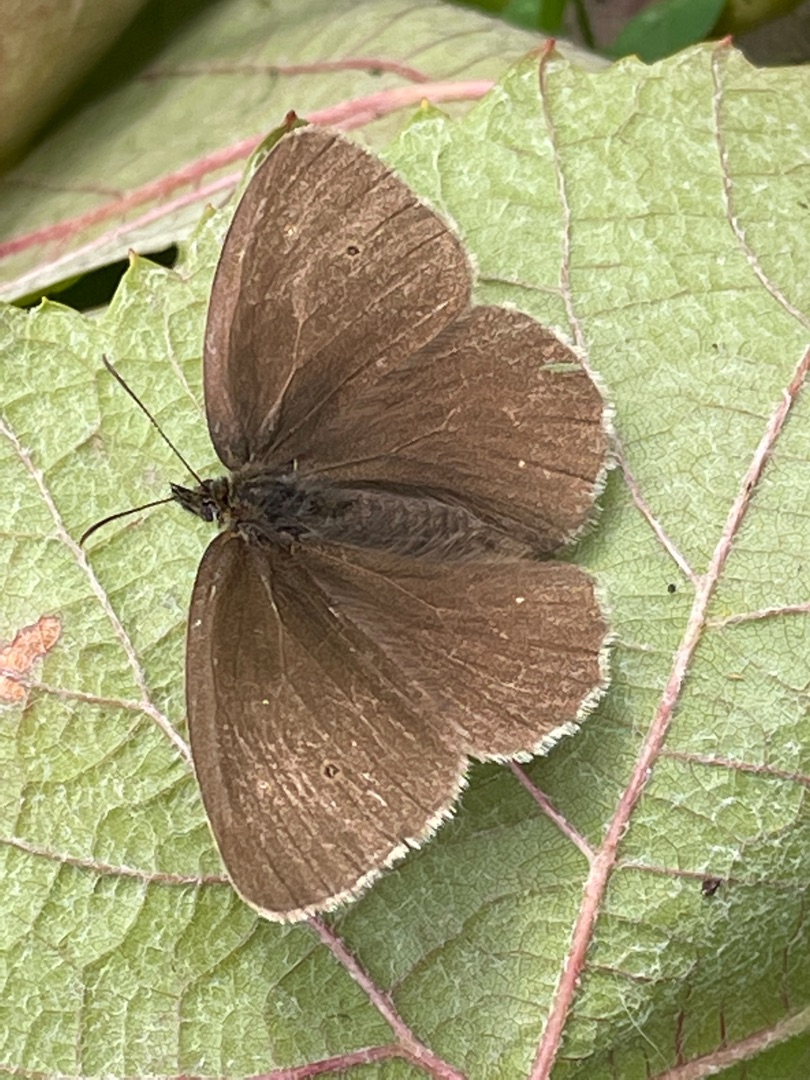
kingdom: Animalia
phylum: Arthropoda
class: Insecta
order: Lepidoptera
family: Nymphalidae
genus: Aphantopus
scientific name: Aphantopus hyperantus
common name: Engrandøje
